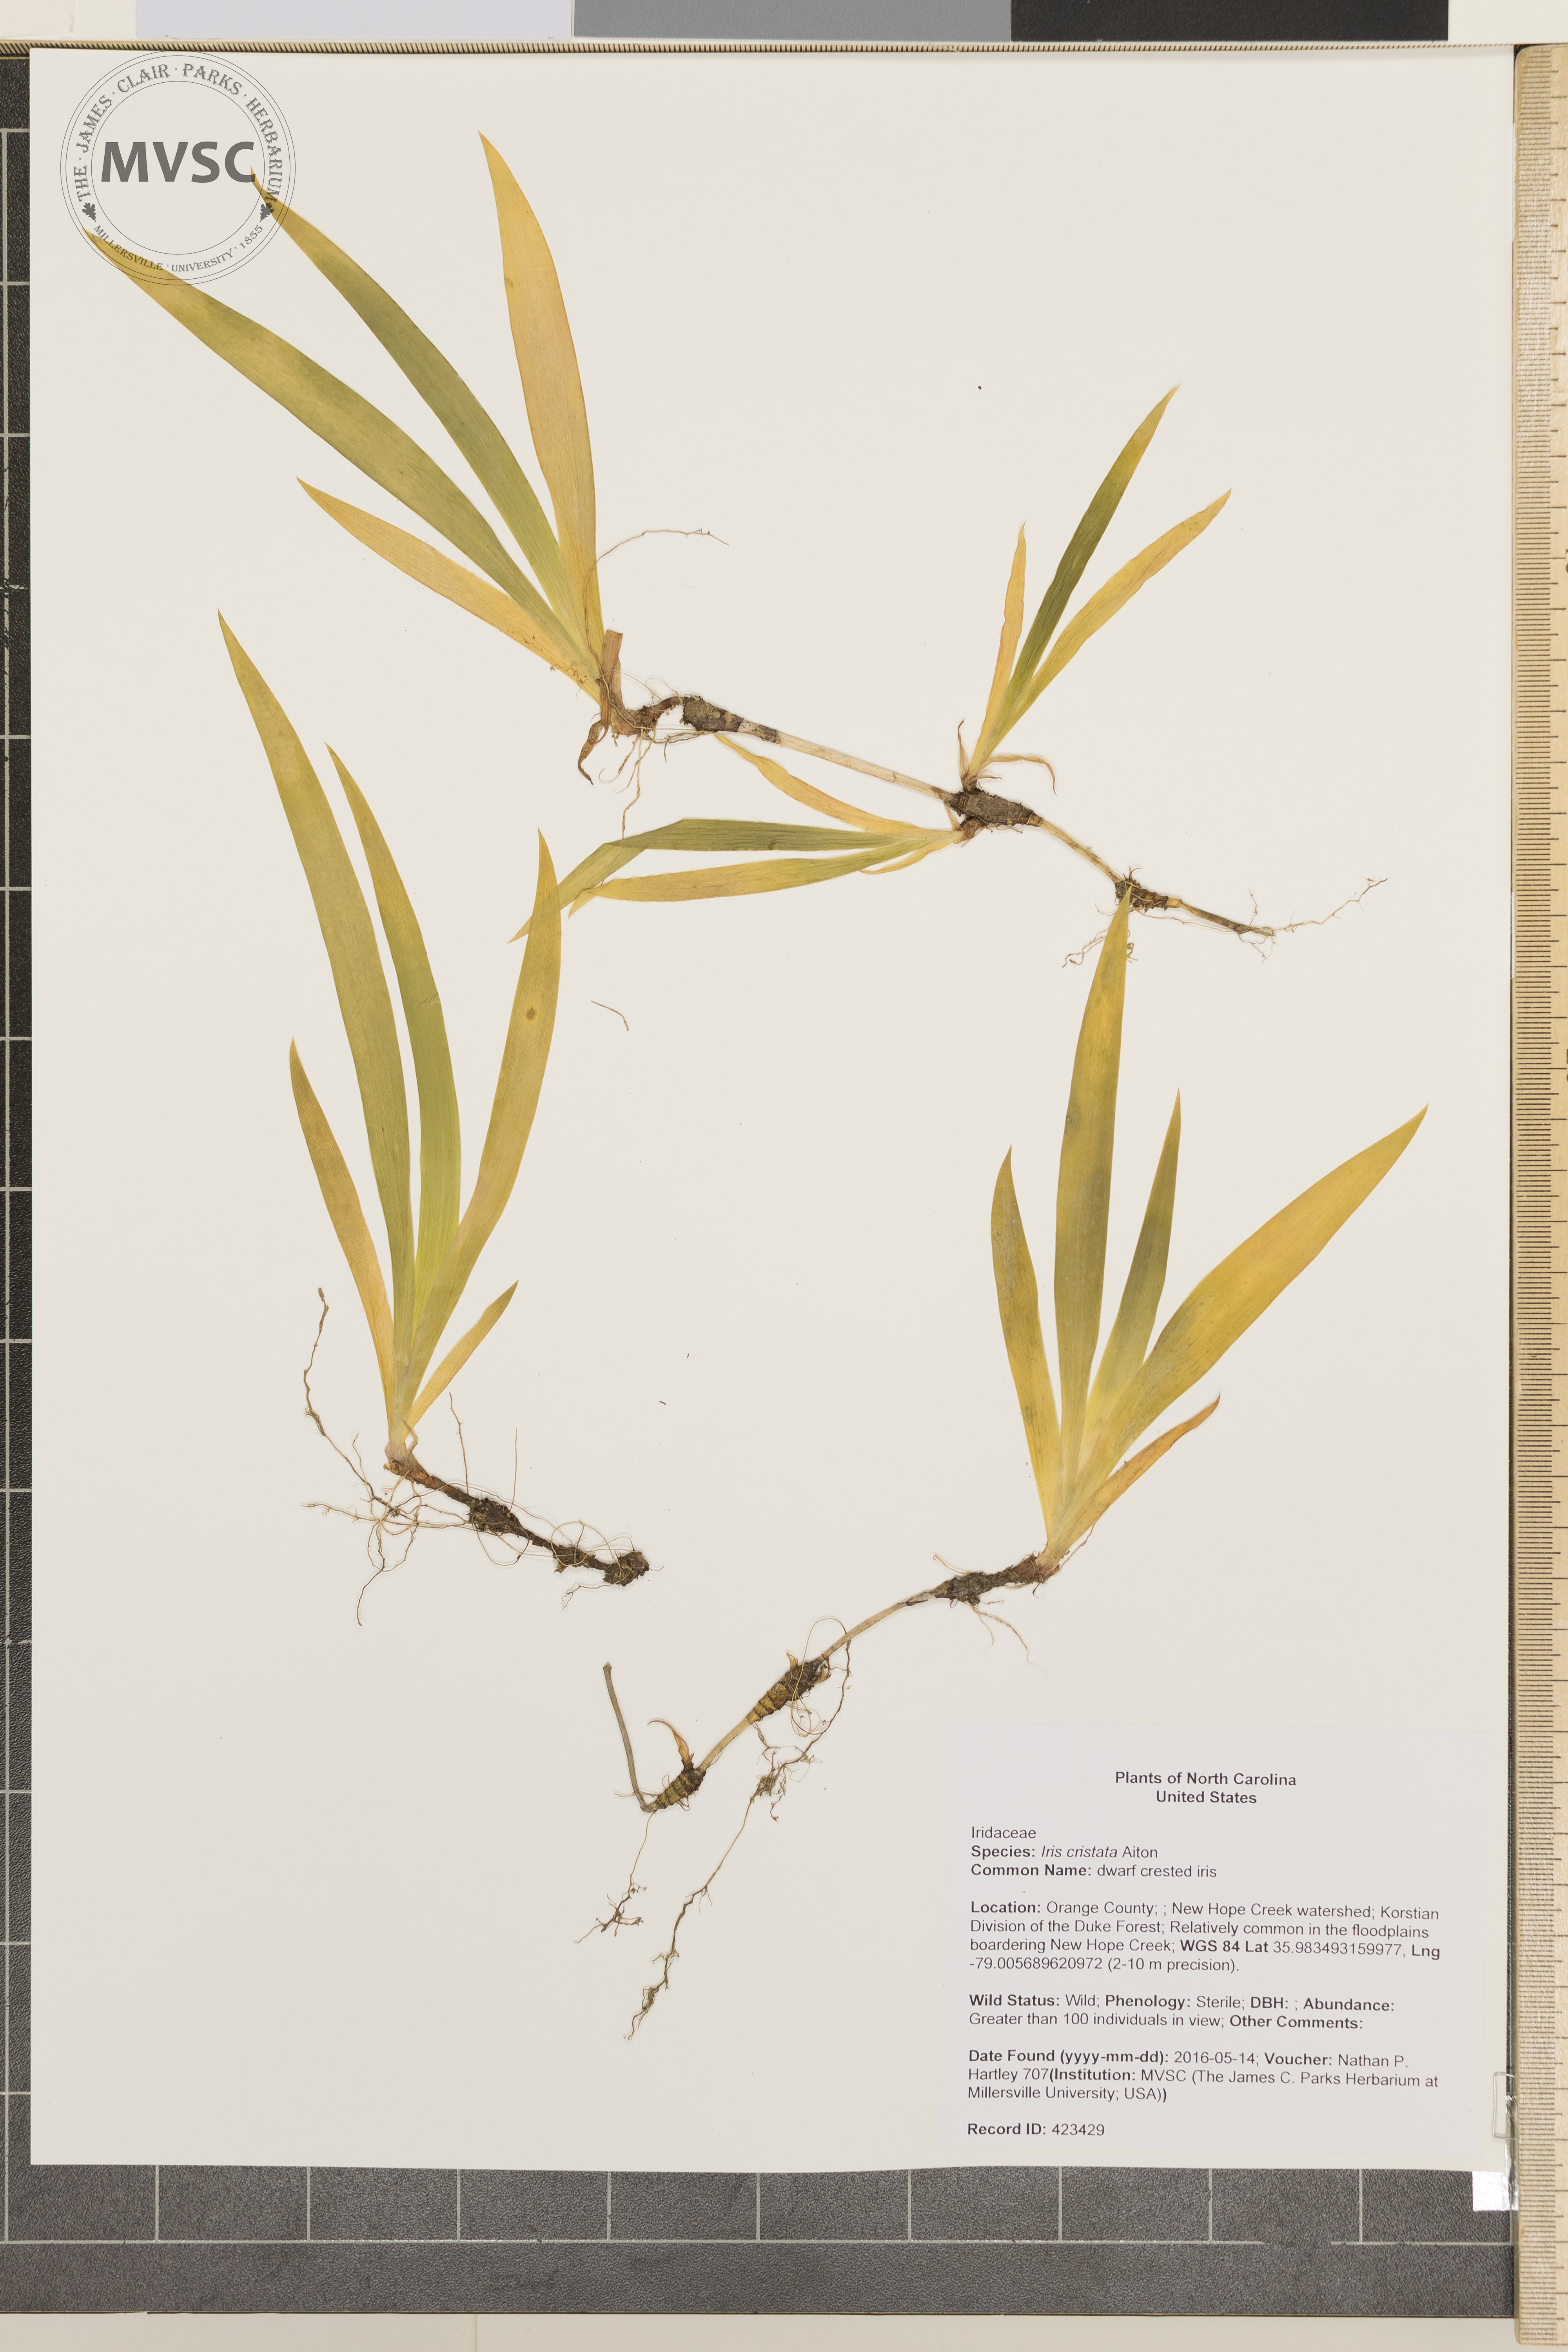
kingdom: Plantae
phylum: Tracheophyta
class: Liliopsida
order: Asparagales
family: Iridaceae
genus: Iris
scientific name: Iris cristata
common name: dwarf crested iris
